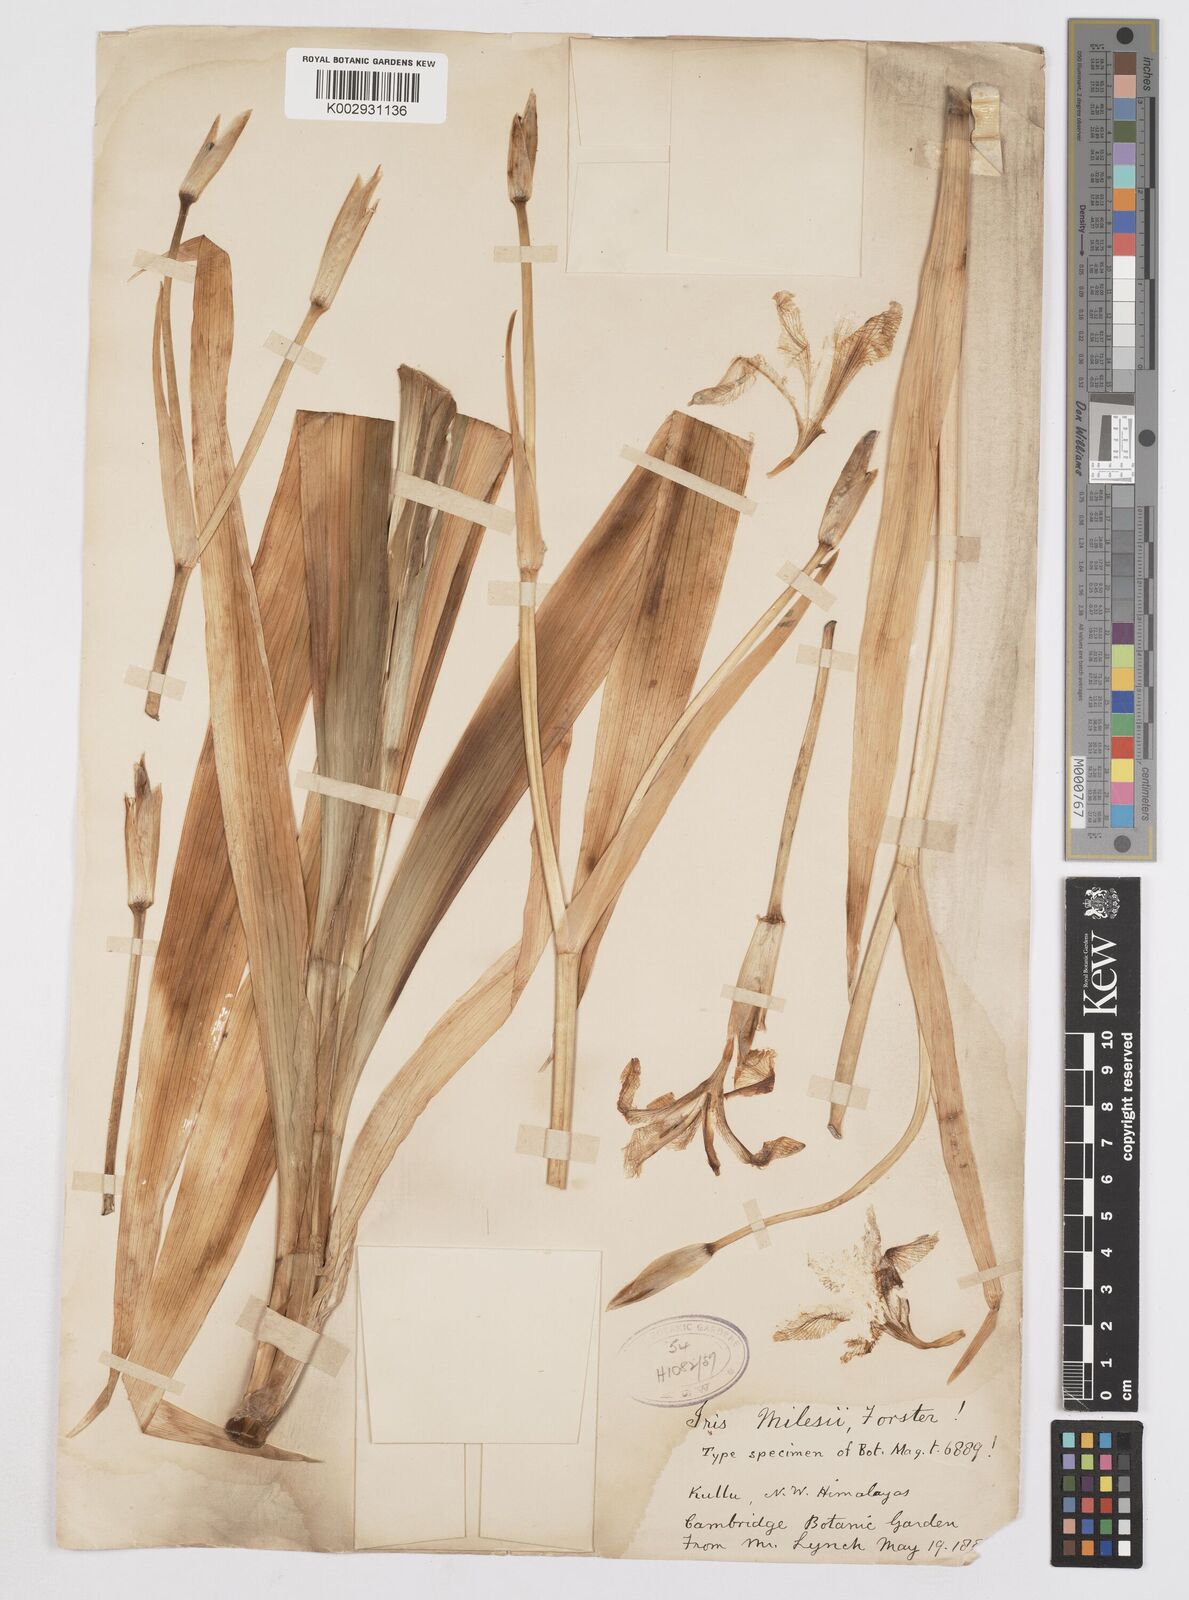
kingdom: Plantae
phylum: Tracheophyta
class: Liliopsida
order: Asparagales
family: Iridaceae
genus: Iris
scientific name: Iris milesii
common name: Red-flower iris
